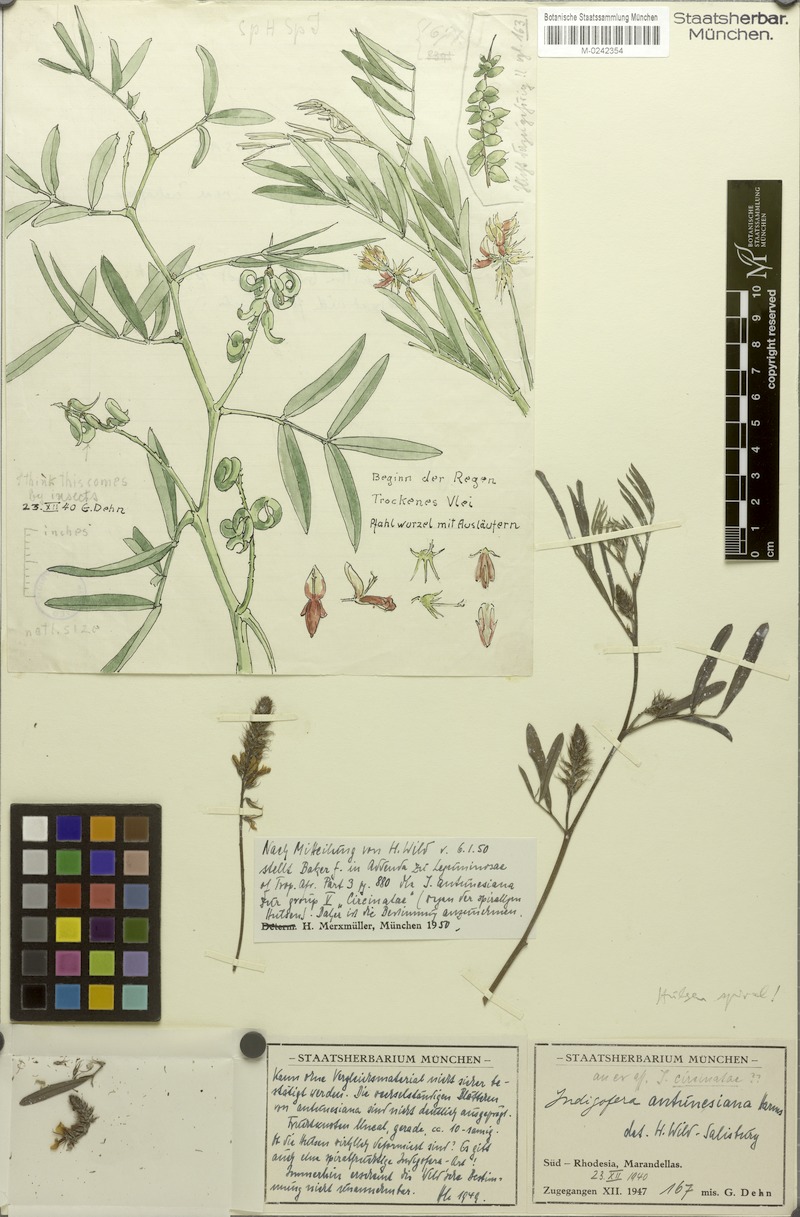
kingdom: Plantae
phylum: Tracheophyta
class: Magnoliopsida
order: Fabales
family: Fabaceae
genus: Indigofera
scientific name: Indigofera antunesiana
